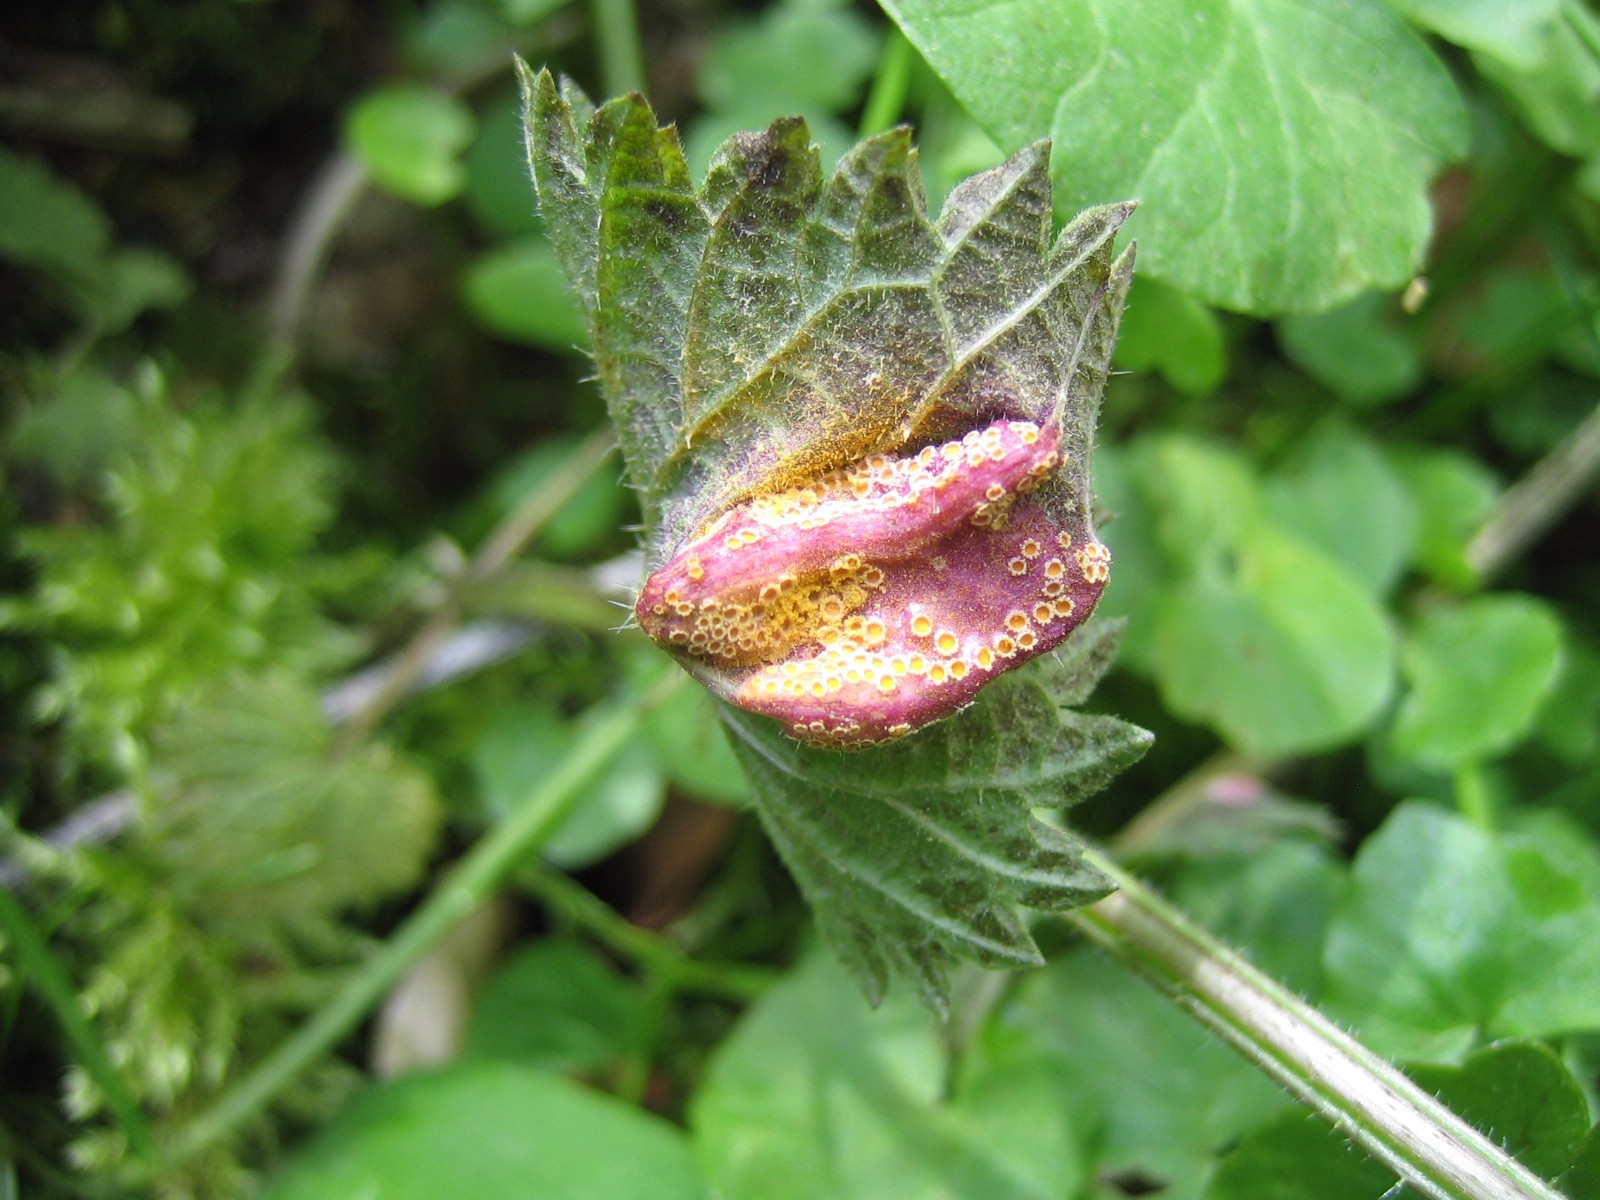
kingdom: Fungi
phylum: Basidiomycota
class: Pucciniomycetes
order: Pucciniales
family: Pucciniaceae
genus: Puccinia
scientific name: Puccinia urticata
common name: nældegalle-tvecellerust
